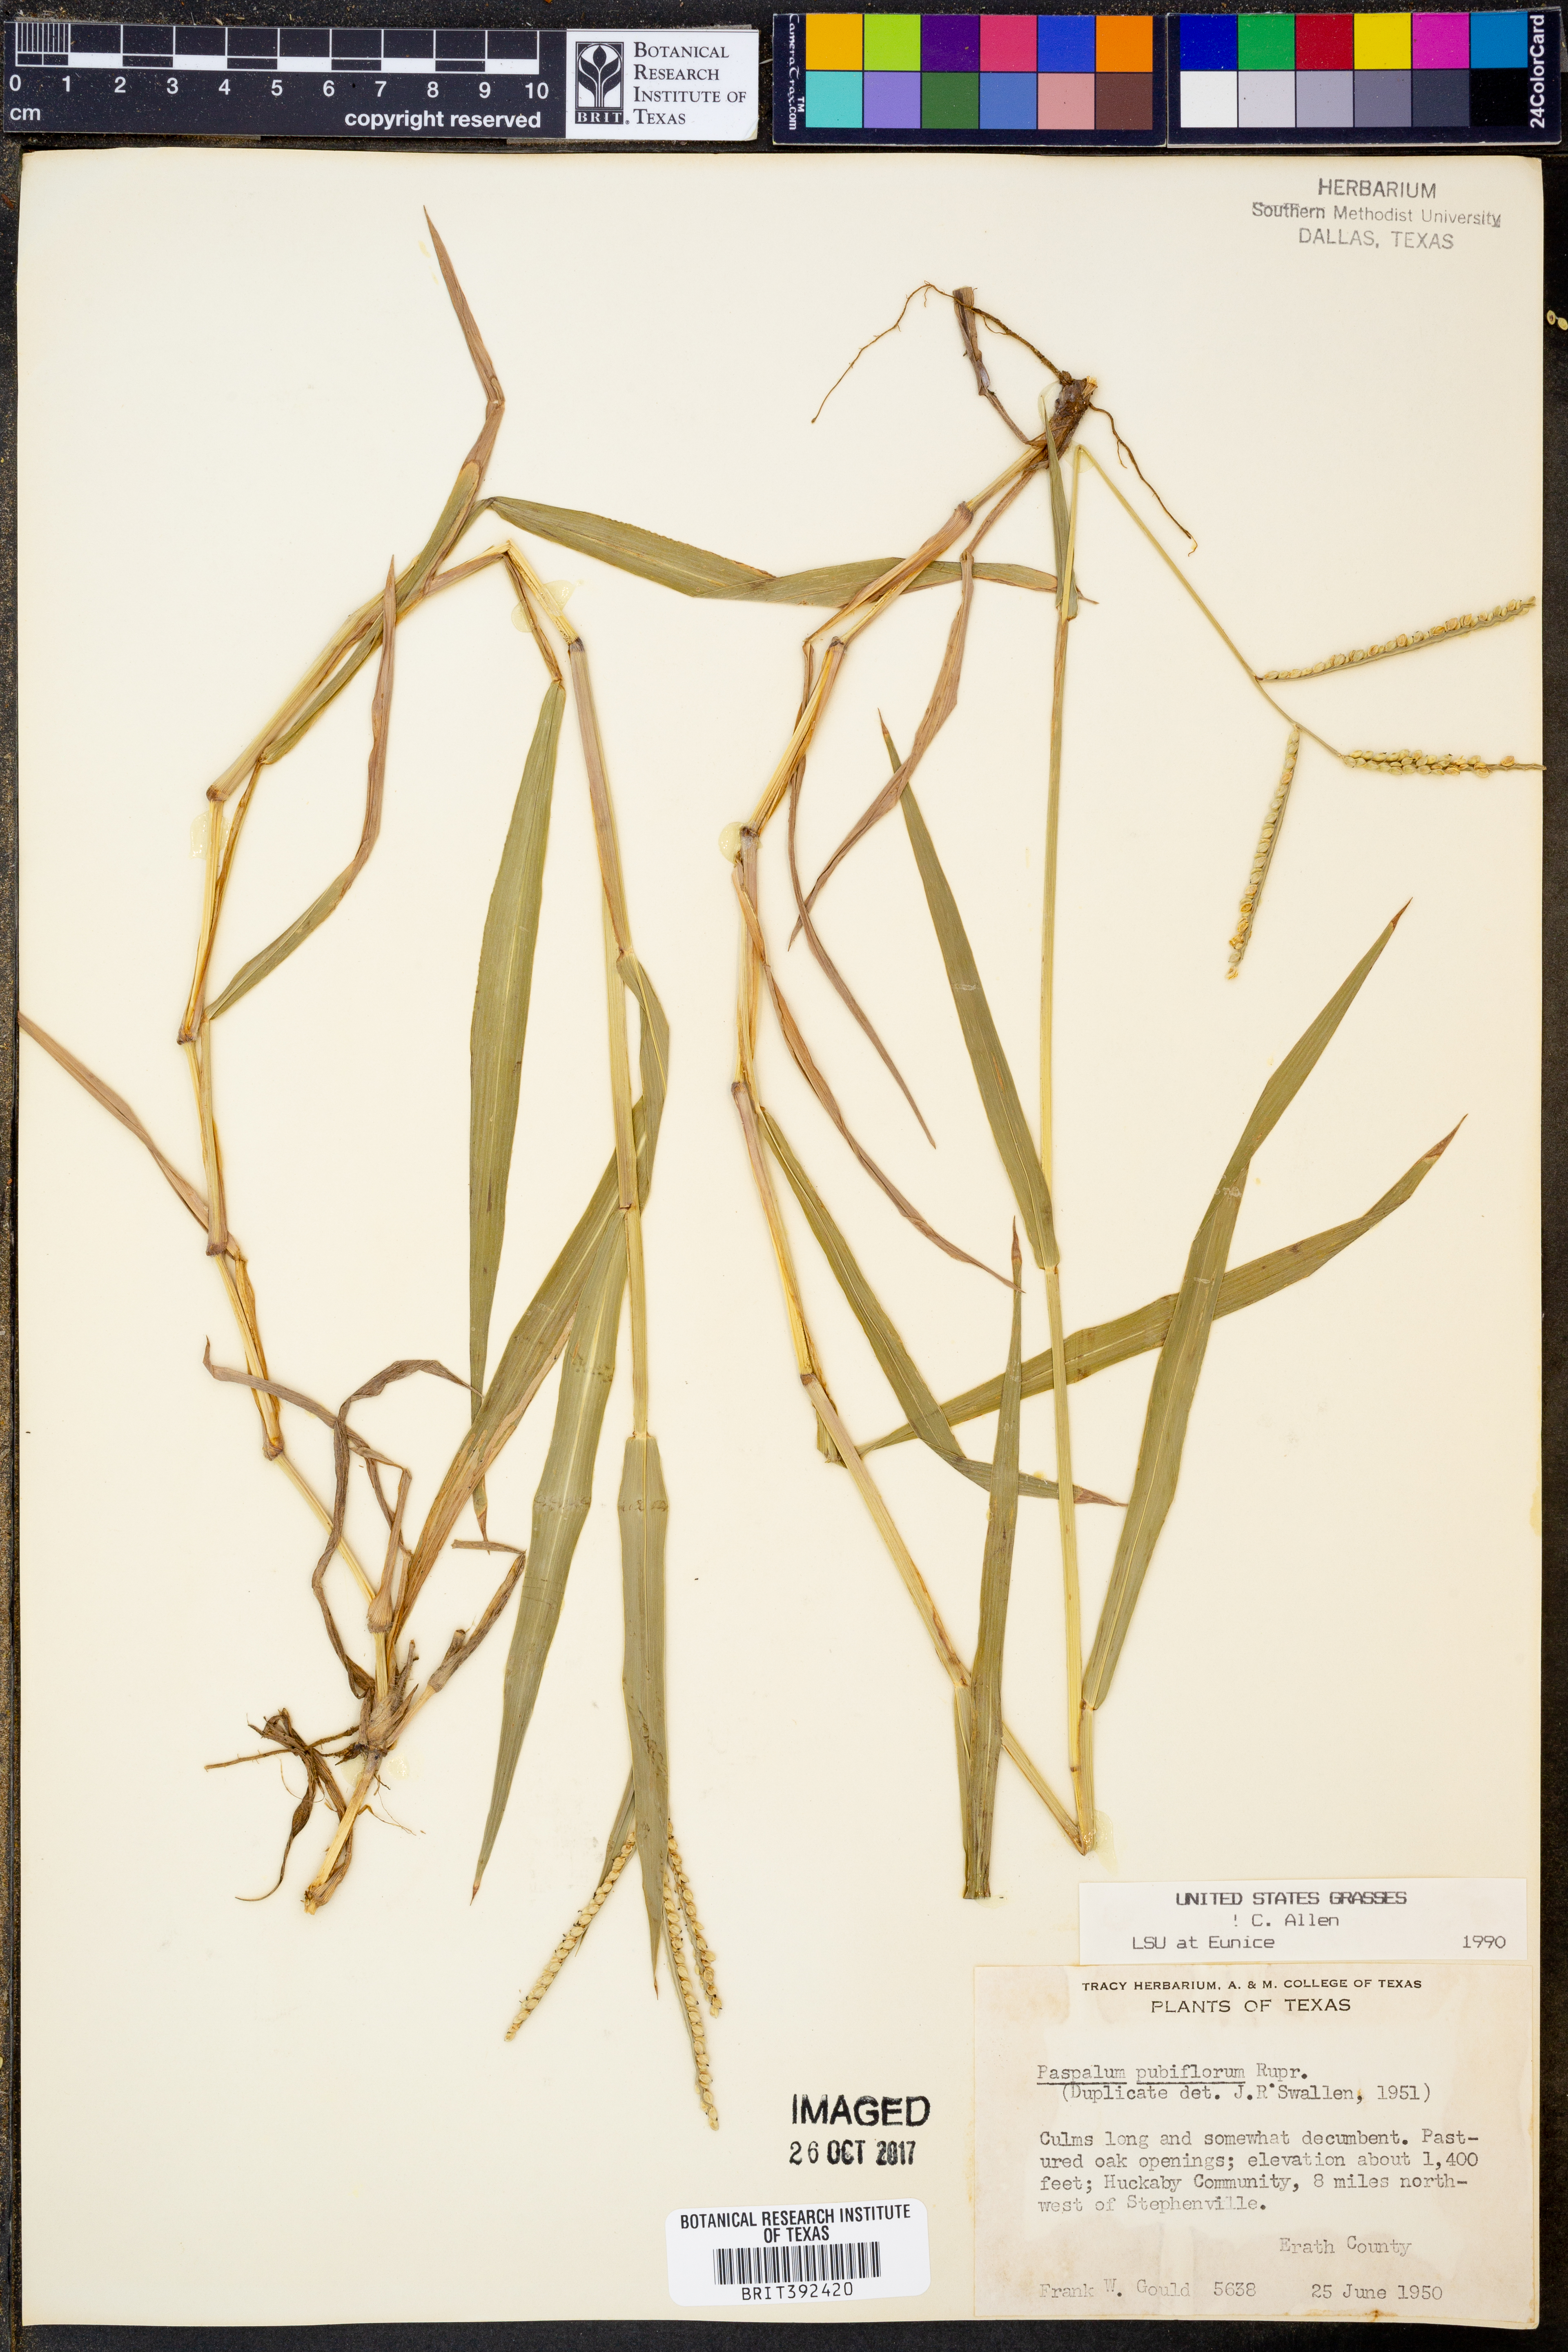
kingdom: Plantae
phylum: Tracheophyta
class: Liliopsida
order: Poales
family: Poaceae
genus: Paspalum
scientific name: Paspalum pubiflorum
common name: Hairy-seed paspalum
